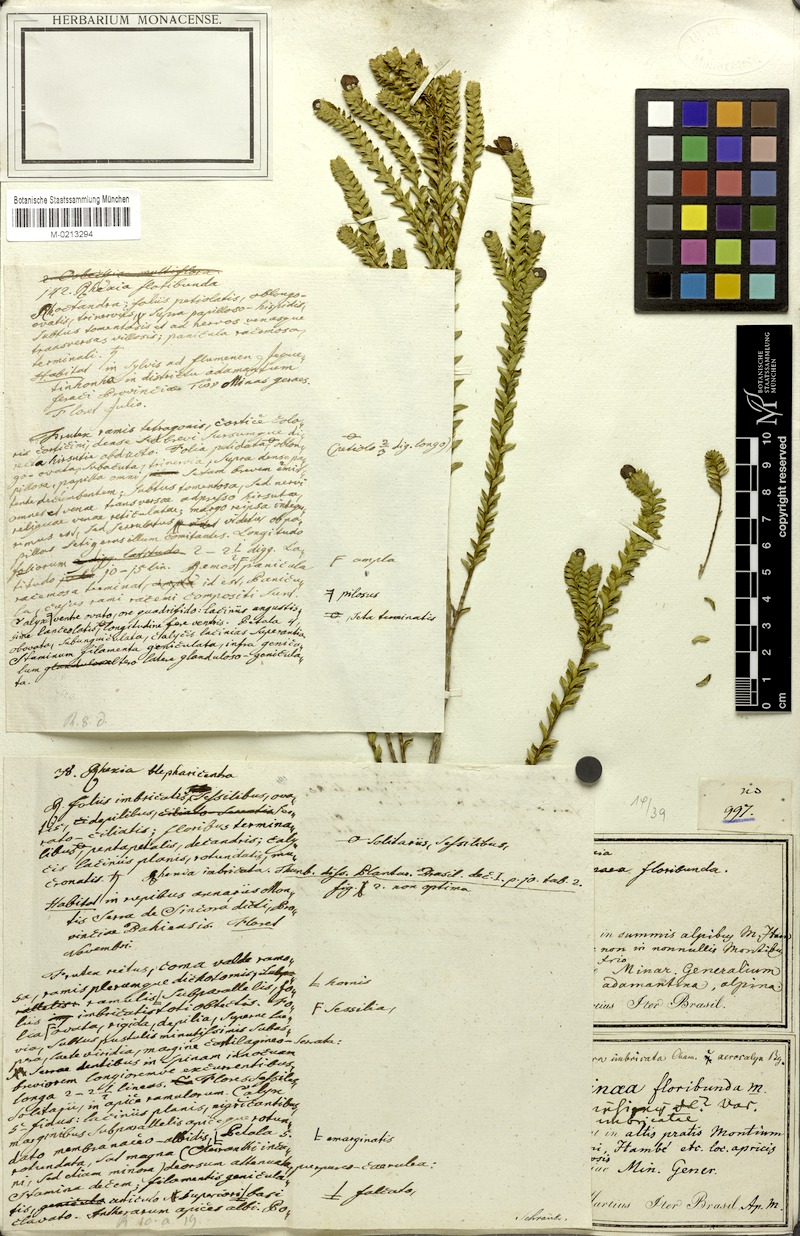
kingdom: Plantae
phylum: Tracheophyta
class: Magnoliopsida
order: Myrtales
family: Melastomataceae
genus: Microlicia
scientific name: Microlicia cataphracta
